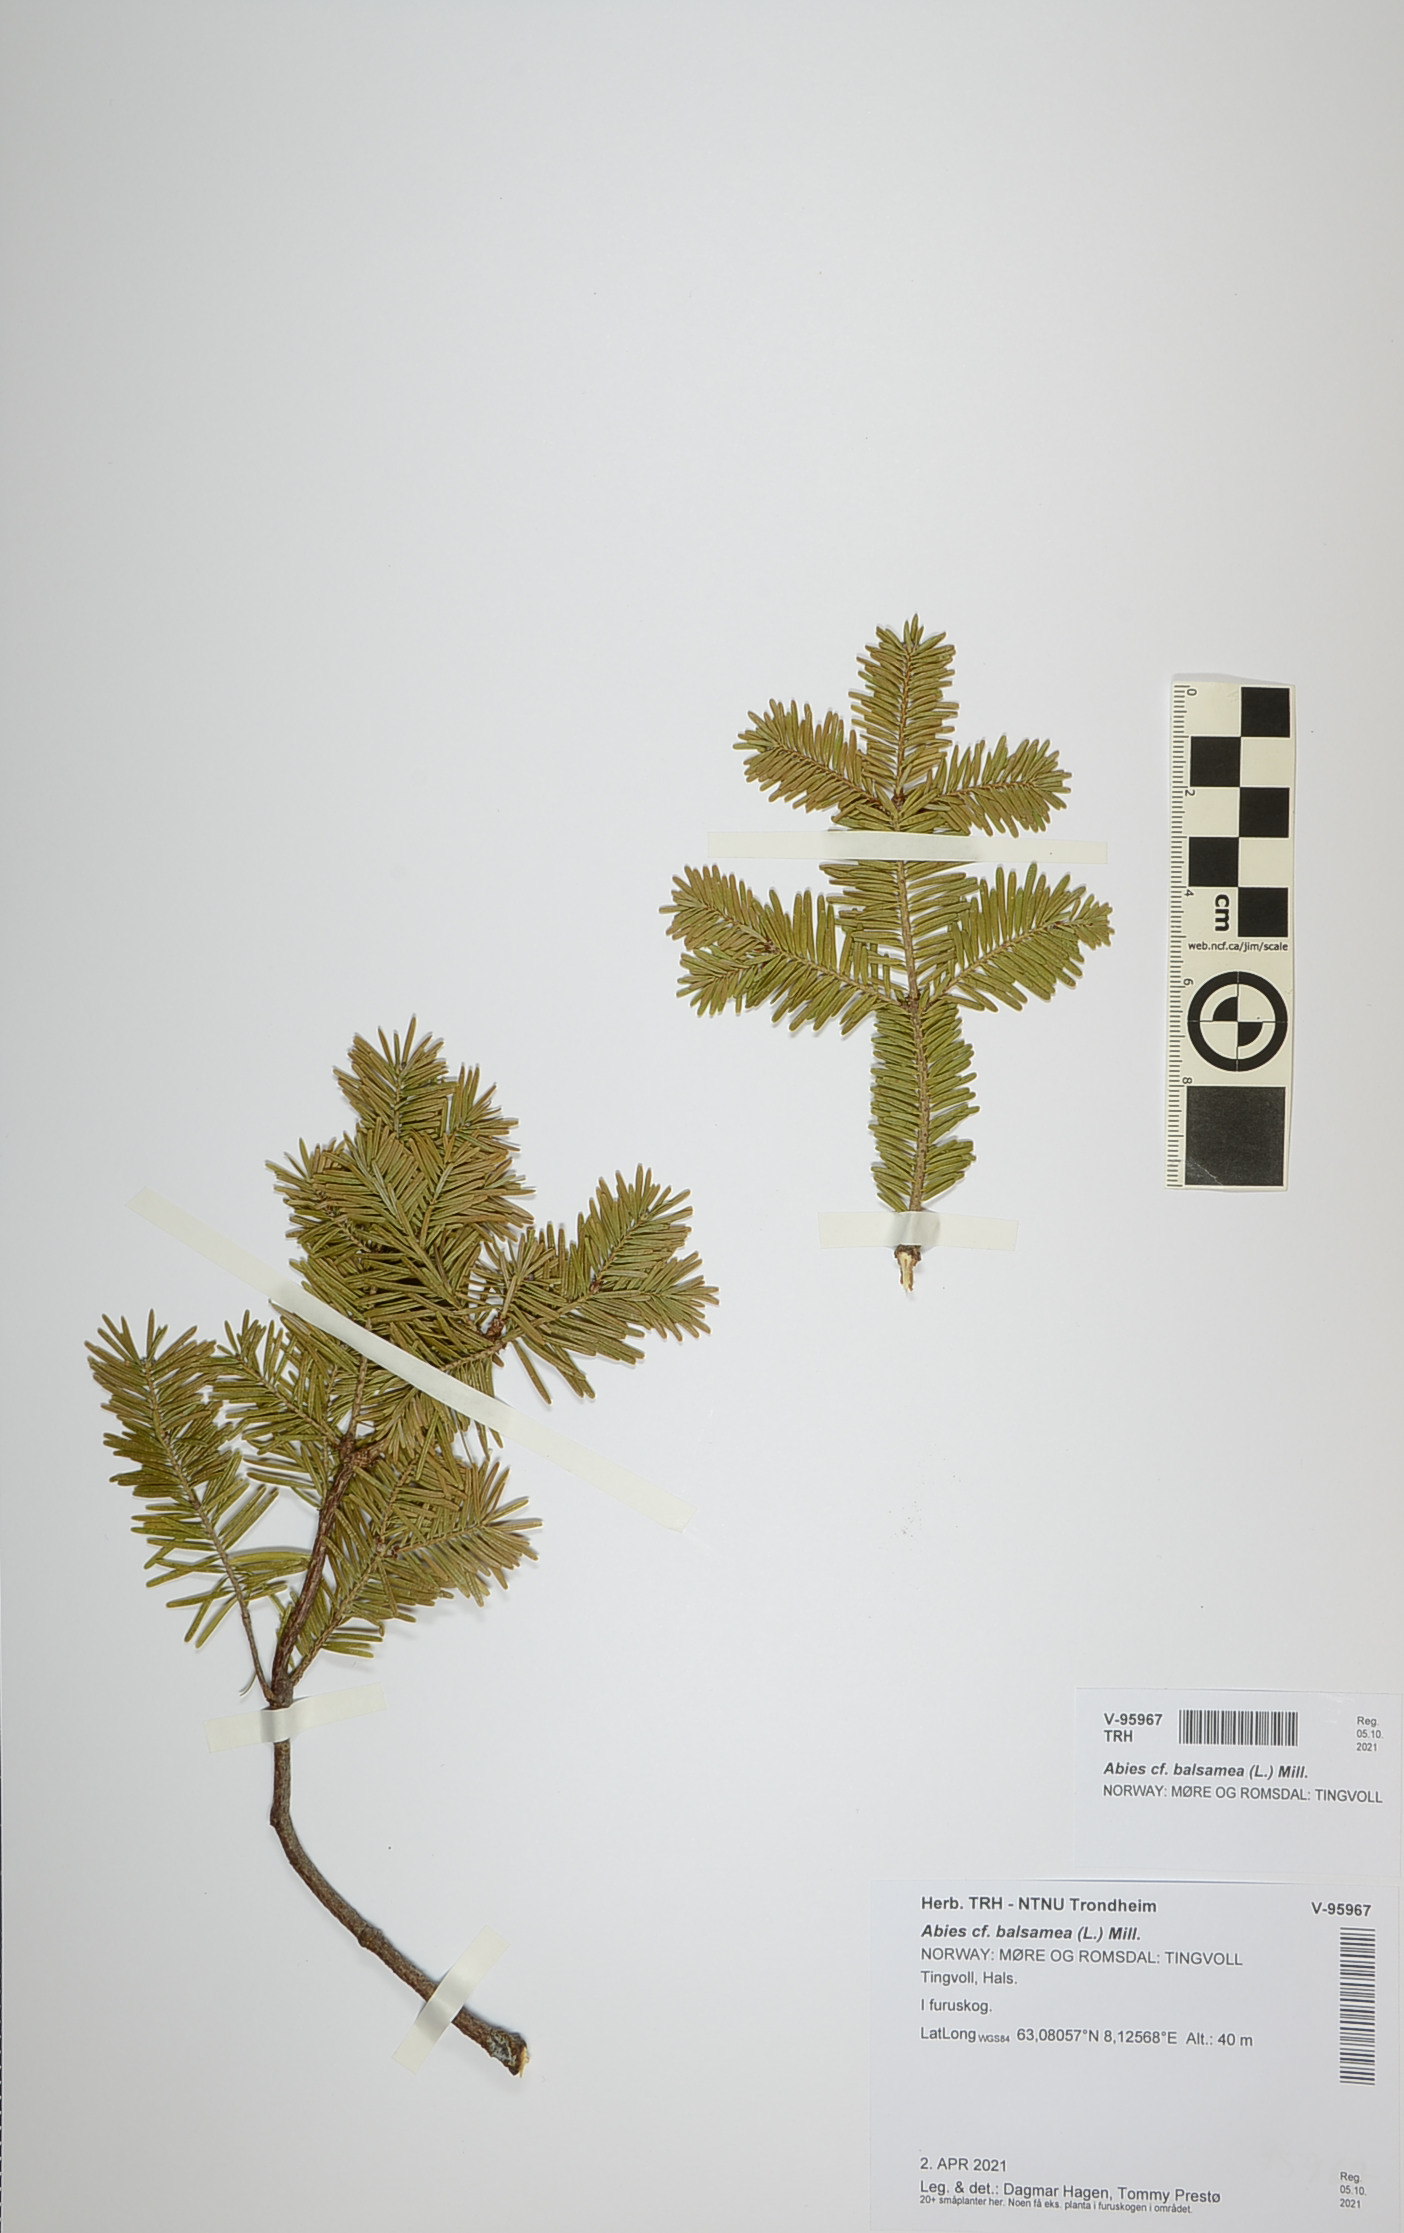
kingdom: Plantae
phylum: Tracheophyta
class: Pinopsida
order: Pinales
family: Pinaceae
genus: Abies
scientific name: Abies balsamea
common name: Balsam fir
